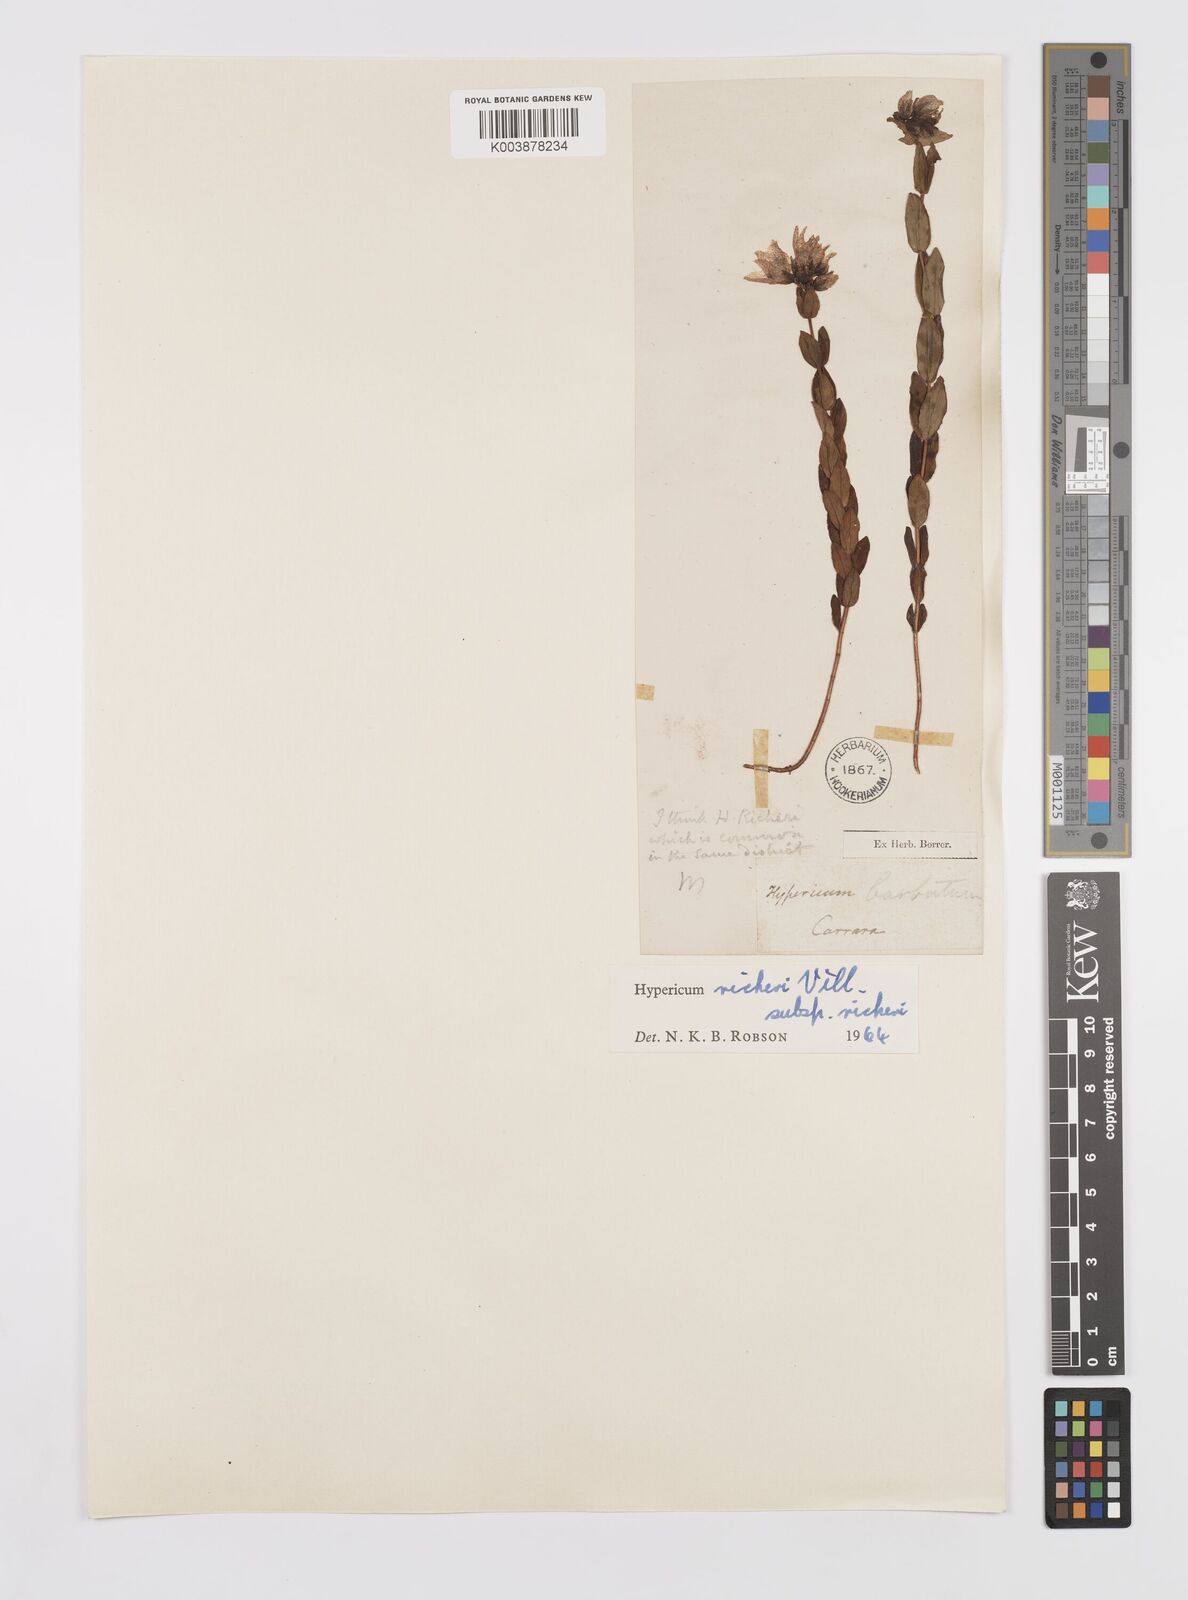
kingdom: Plantae
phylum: Tracheophyta
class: Magnoliopsida
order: Malpighiales
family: Hypericaceae
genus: Hypericum
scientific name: Hypericum richeri
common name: Alpine st john's-wort
